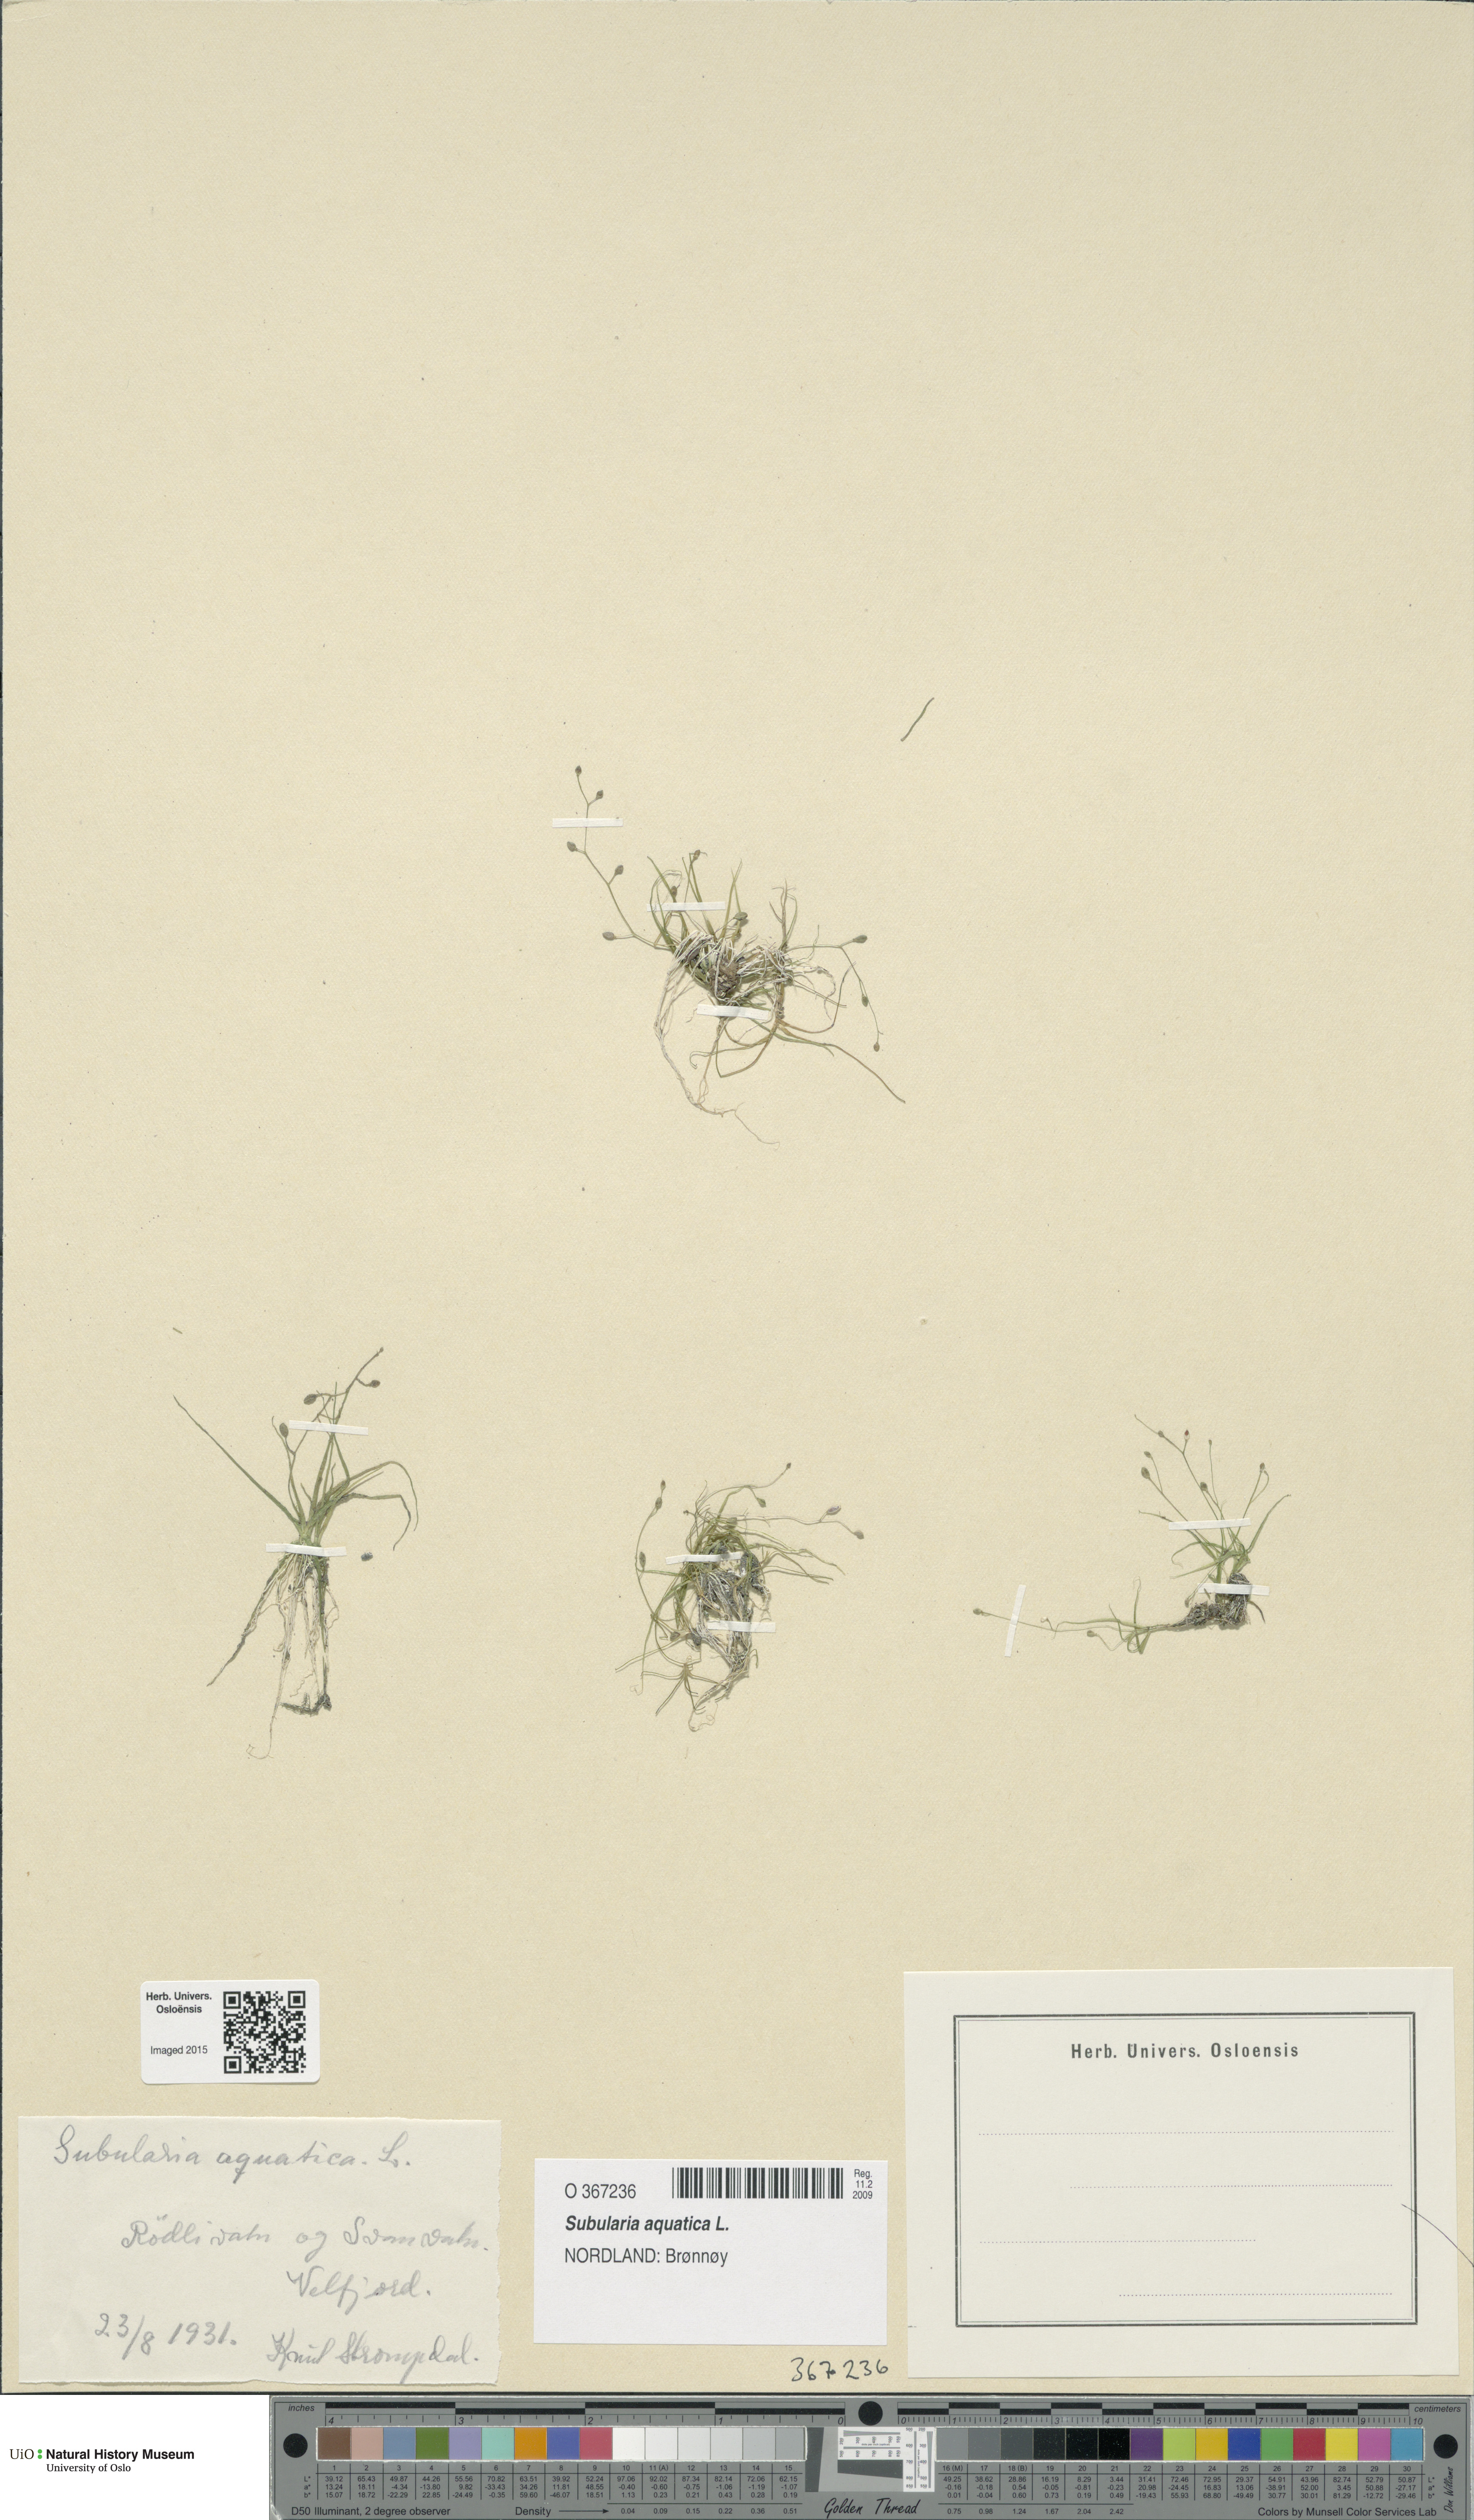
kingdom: Plantae
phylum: Tracheophyta
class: Magnoliopsida
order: Brassicales
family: Brassicaceae
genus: Subularia
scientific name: Subularia aquatica
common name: Awlwort
